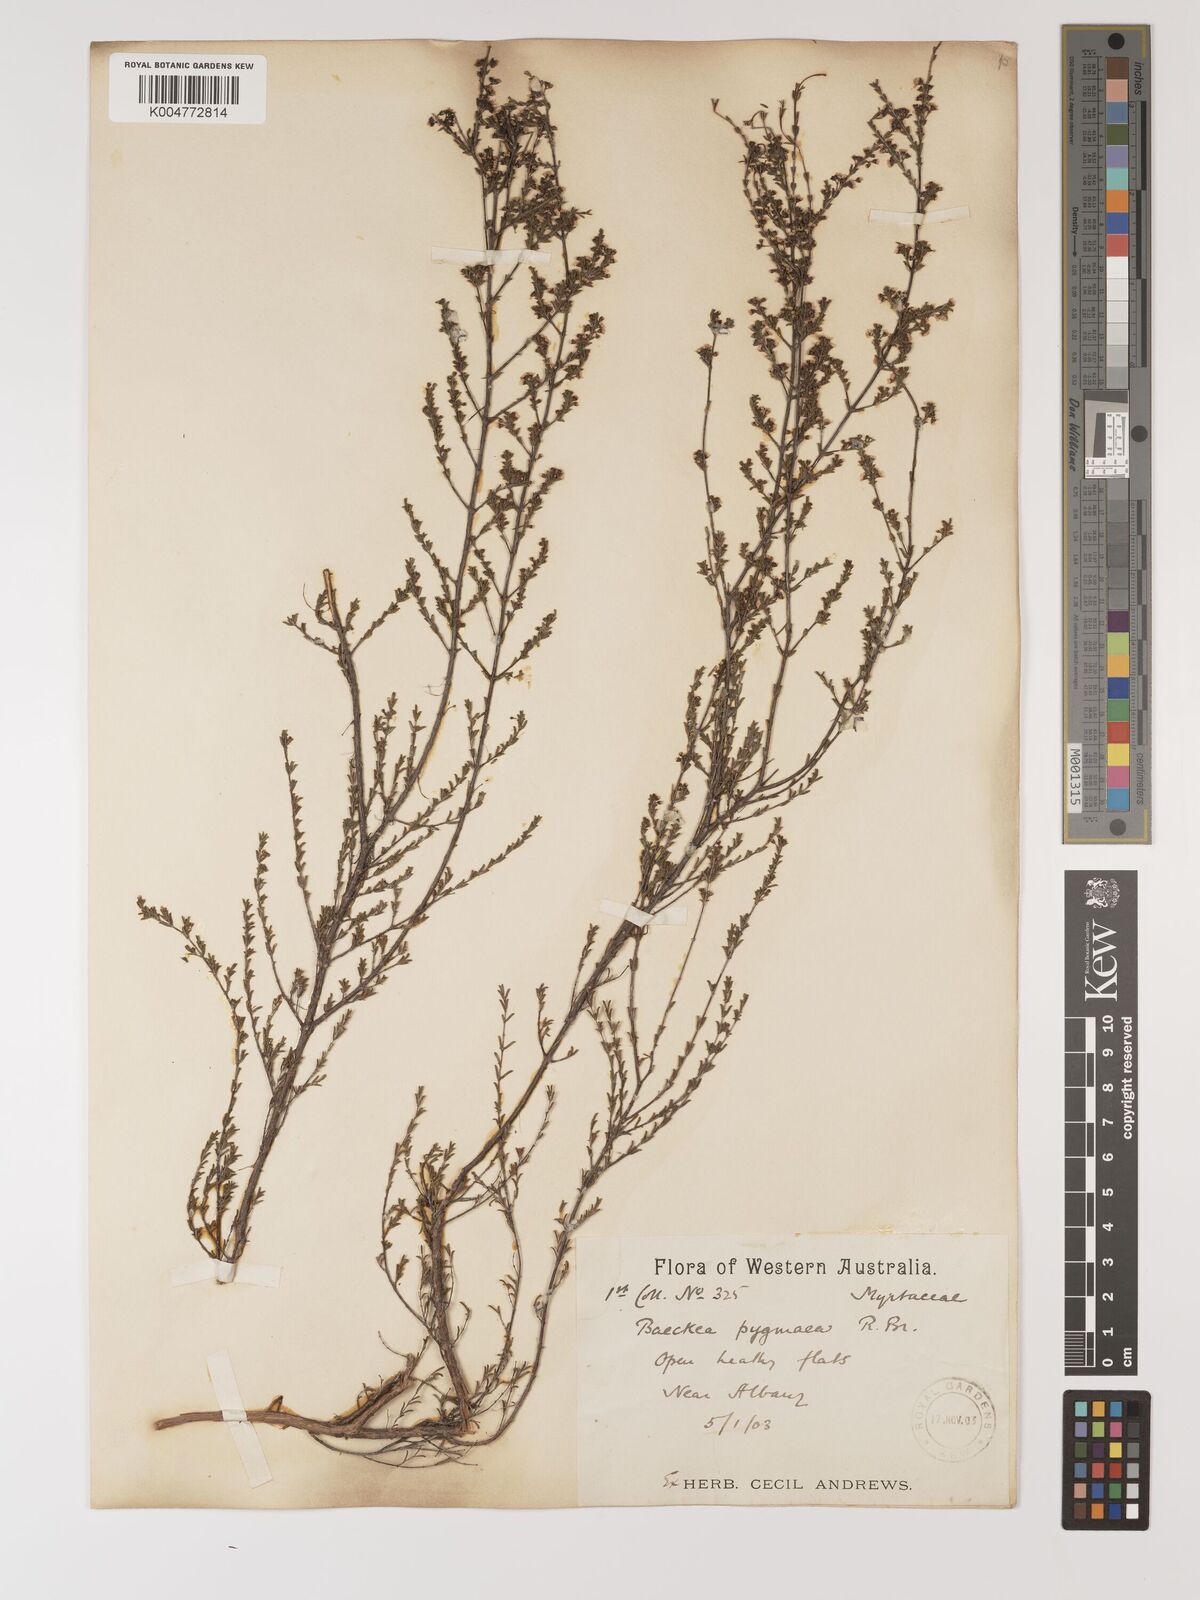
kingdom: Plantae
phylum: Tracheophyta
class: Magnoliopsida
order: Myrtales
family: Myrtaceae
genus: Austrobaeckea
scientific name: Austrobaeckea pygmaea
